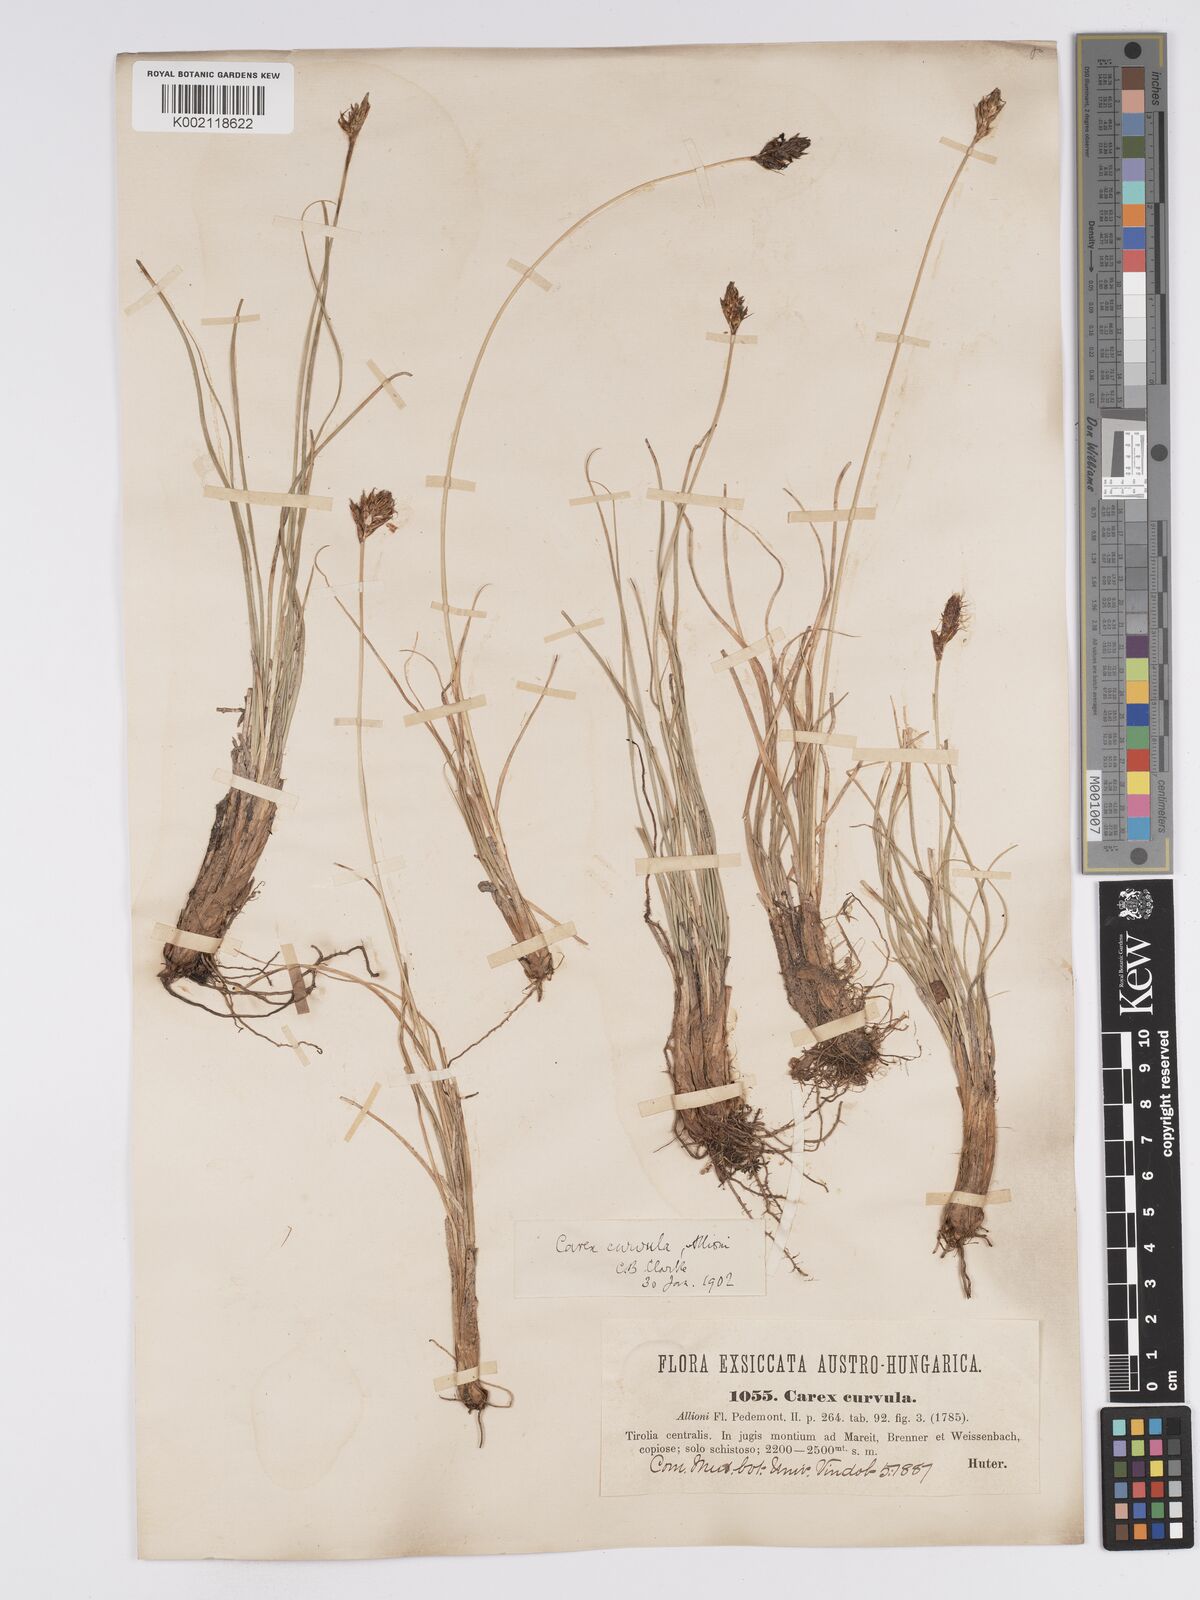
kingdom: Plantae
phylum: Tracheophyta
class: Liliopsida
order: Poales
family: Cyperaceae
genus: Carex
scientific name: Carex curvula
